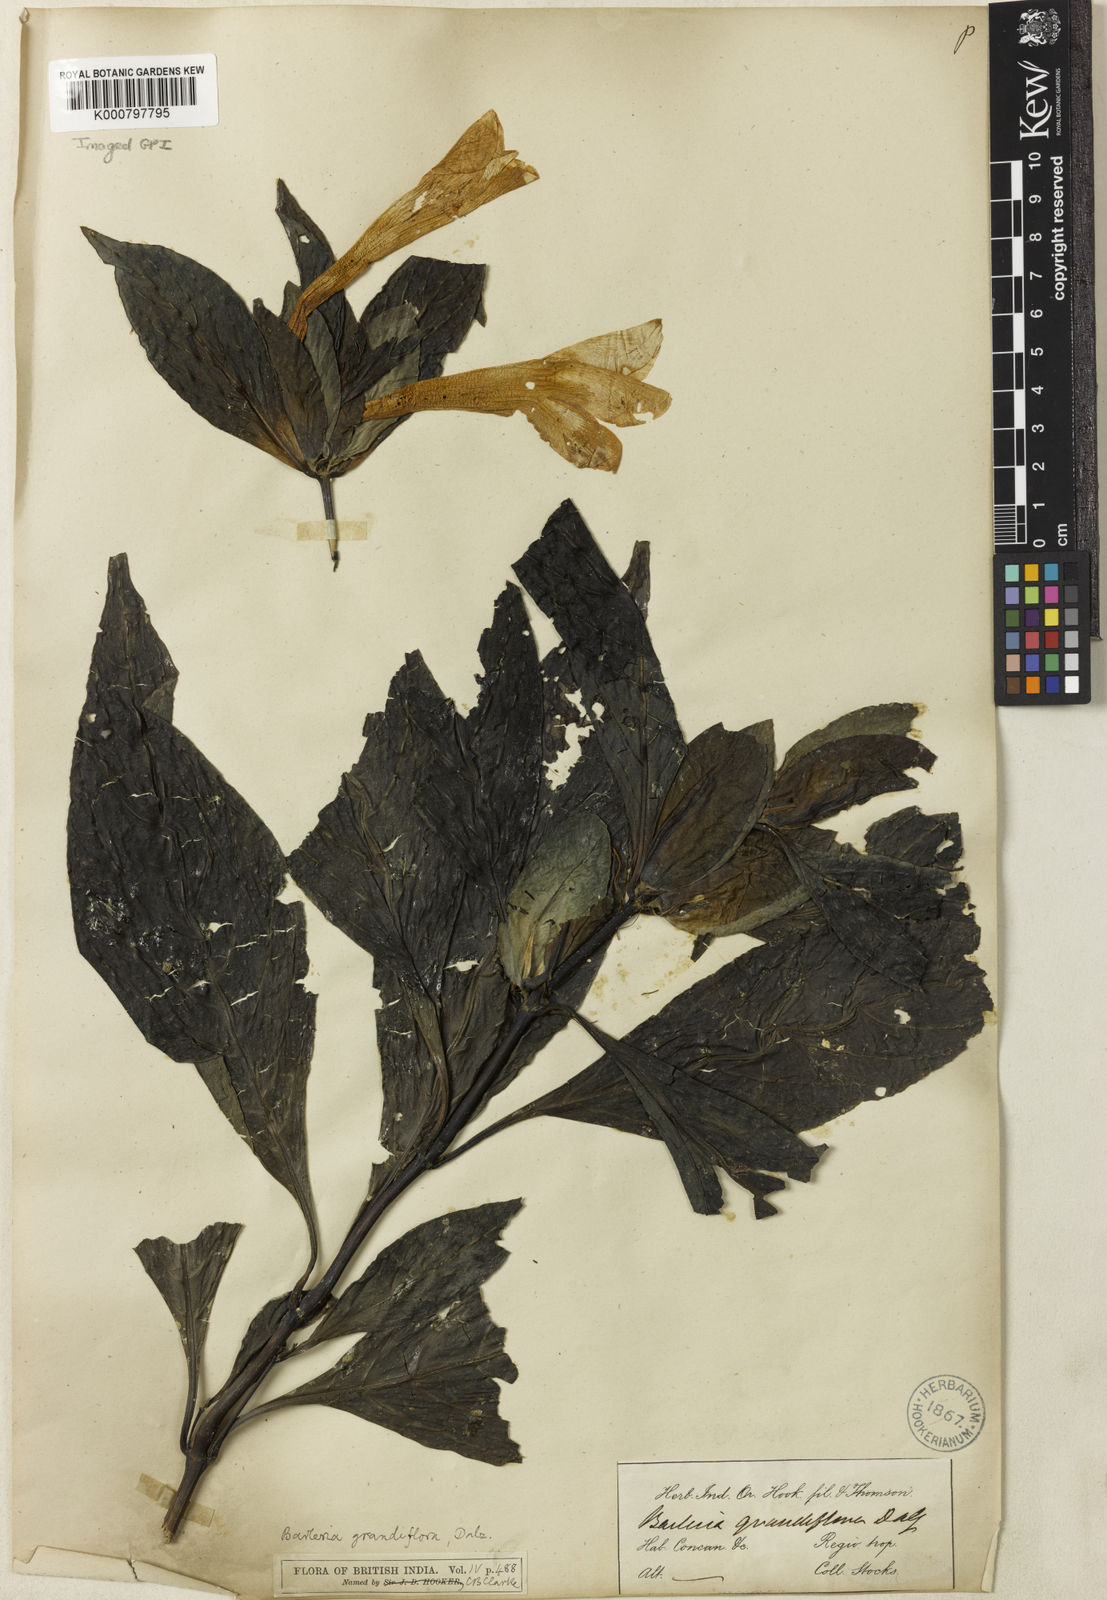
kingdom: Plantae
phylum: Tracheophyta
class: Magnoliopsida
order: Lamiales
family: Acanthaceae
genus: Barleria
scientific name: Barleria grandiflora
